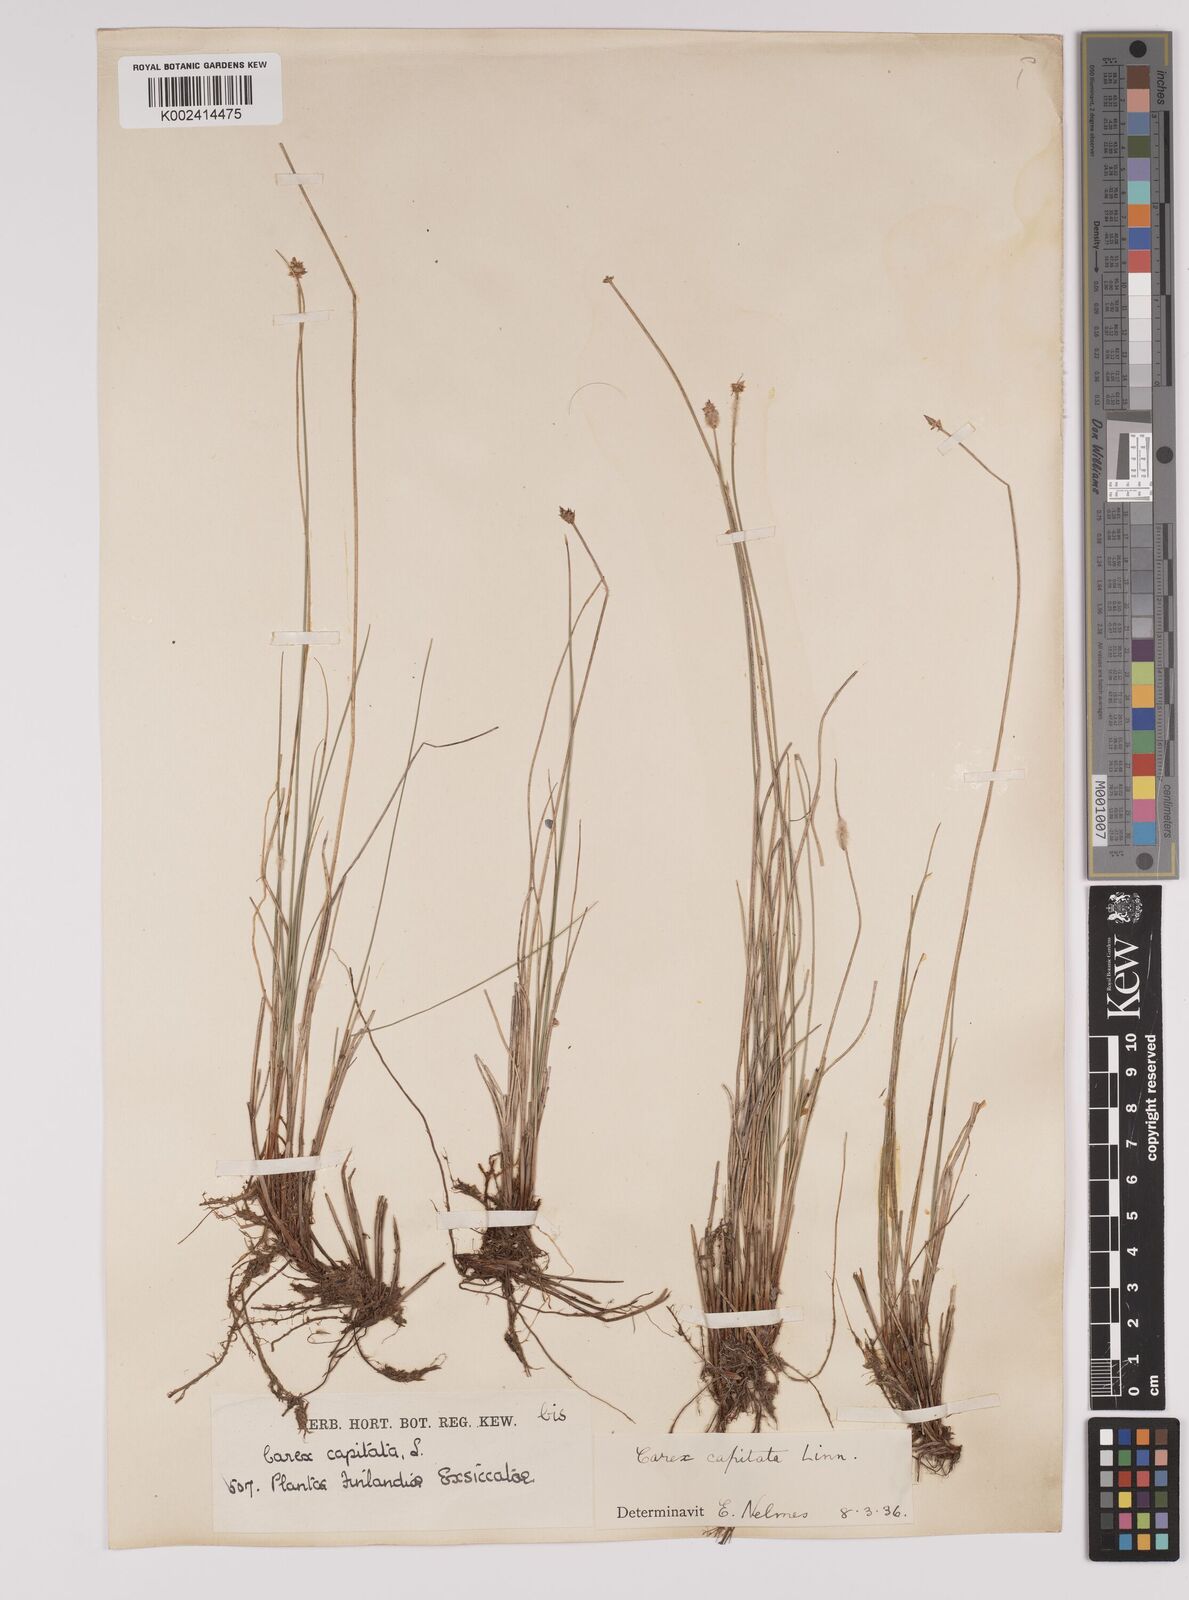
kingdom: Plantae
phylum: Tracheophyta
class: Liliopsida
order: Poales
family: Cyperaceae
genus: Carex
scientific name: Carex capitata
